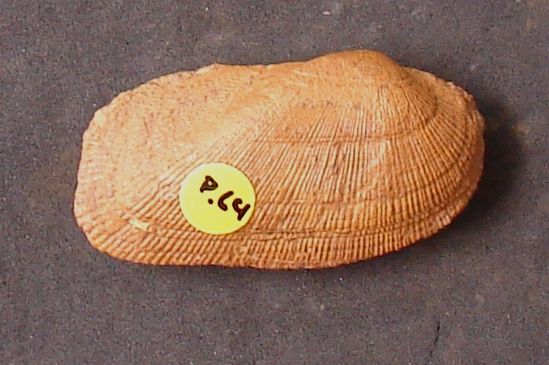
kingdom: Animalia
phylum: Mollusca
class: Bivalvia
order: Arcida
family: Arcidae
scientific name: Arcidae
